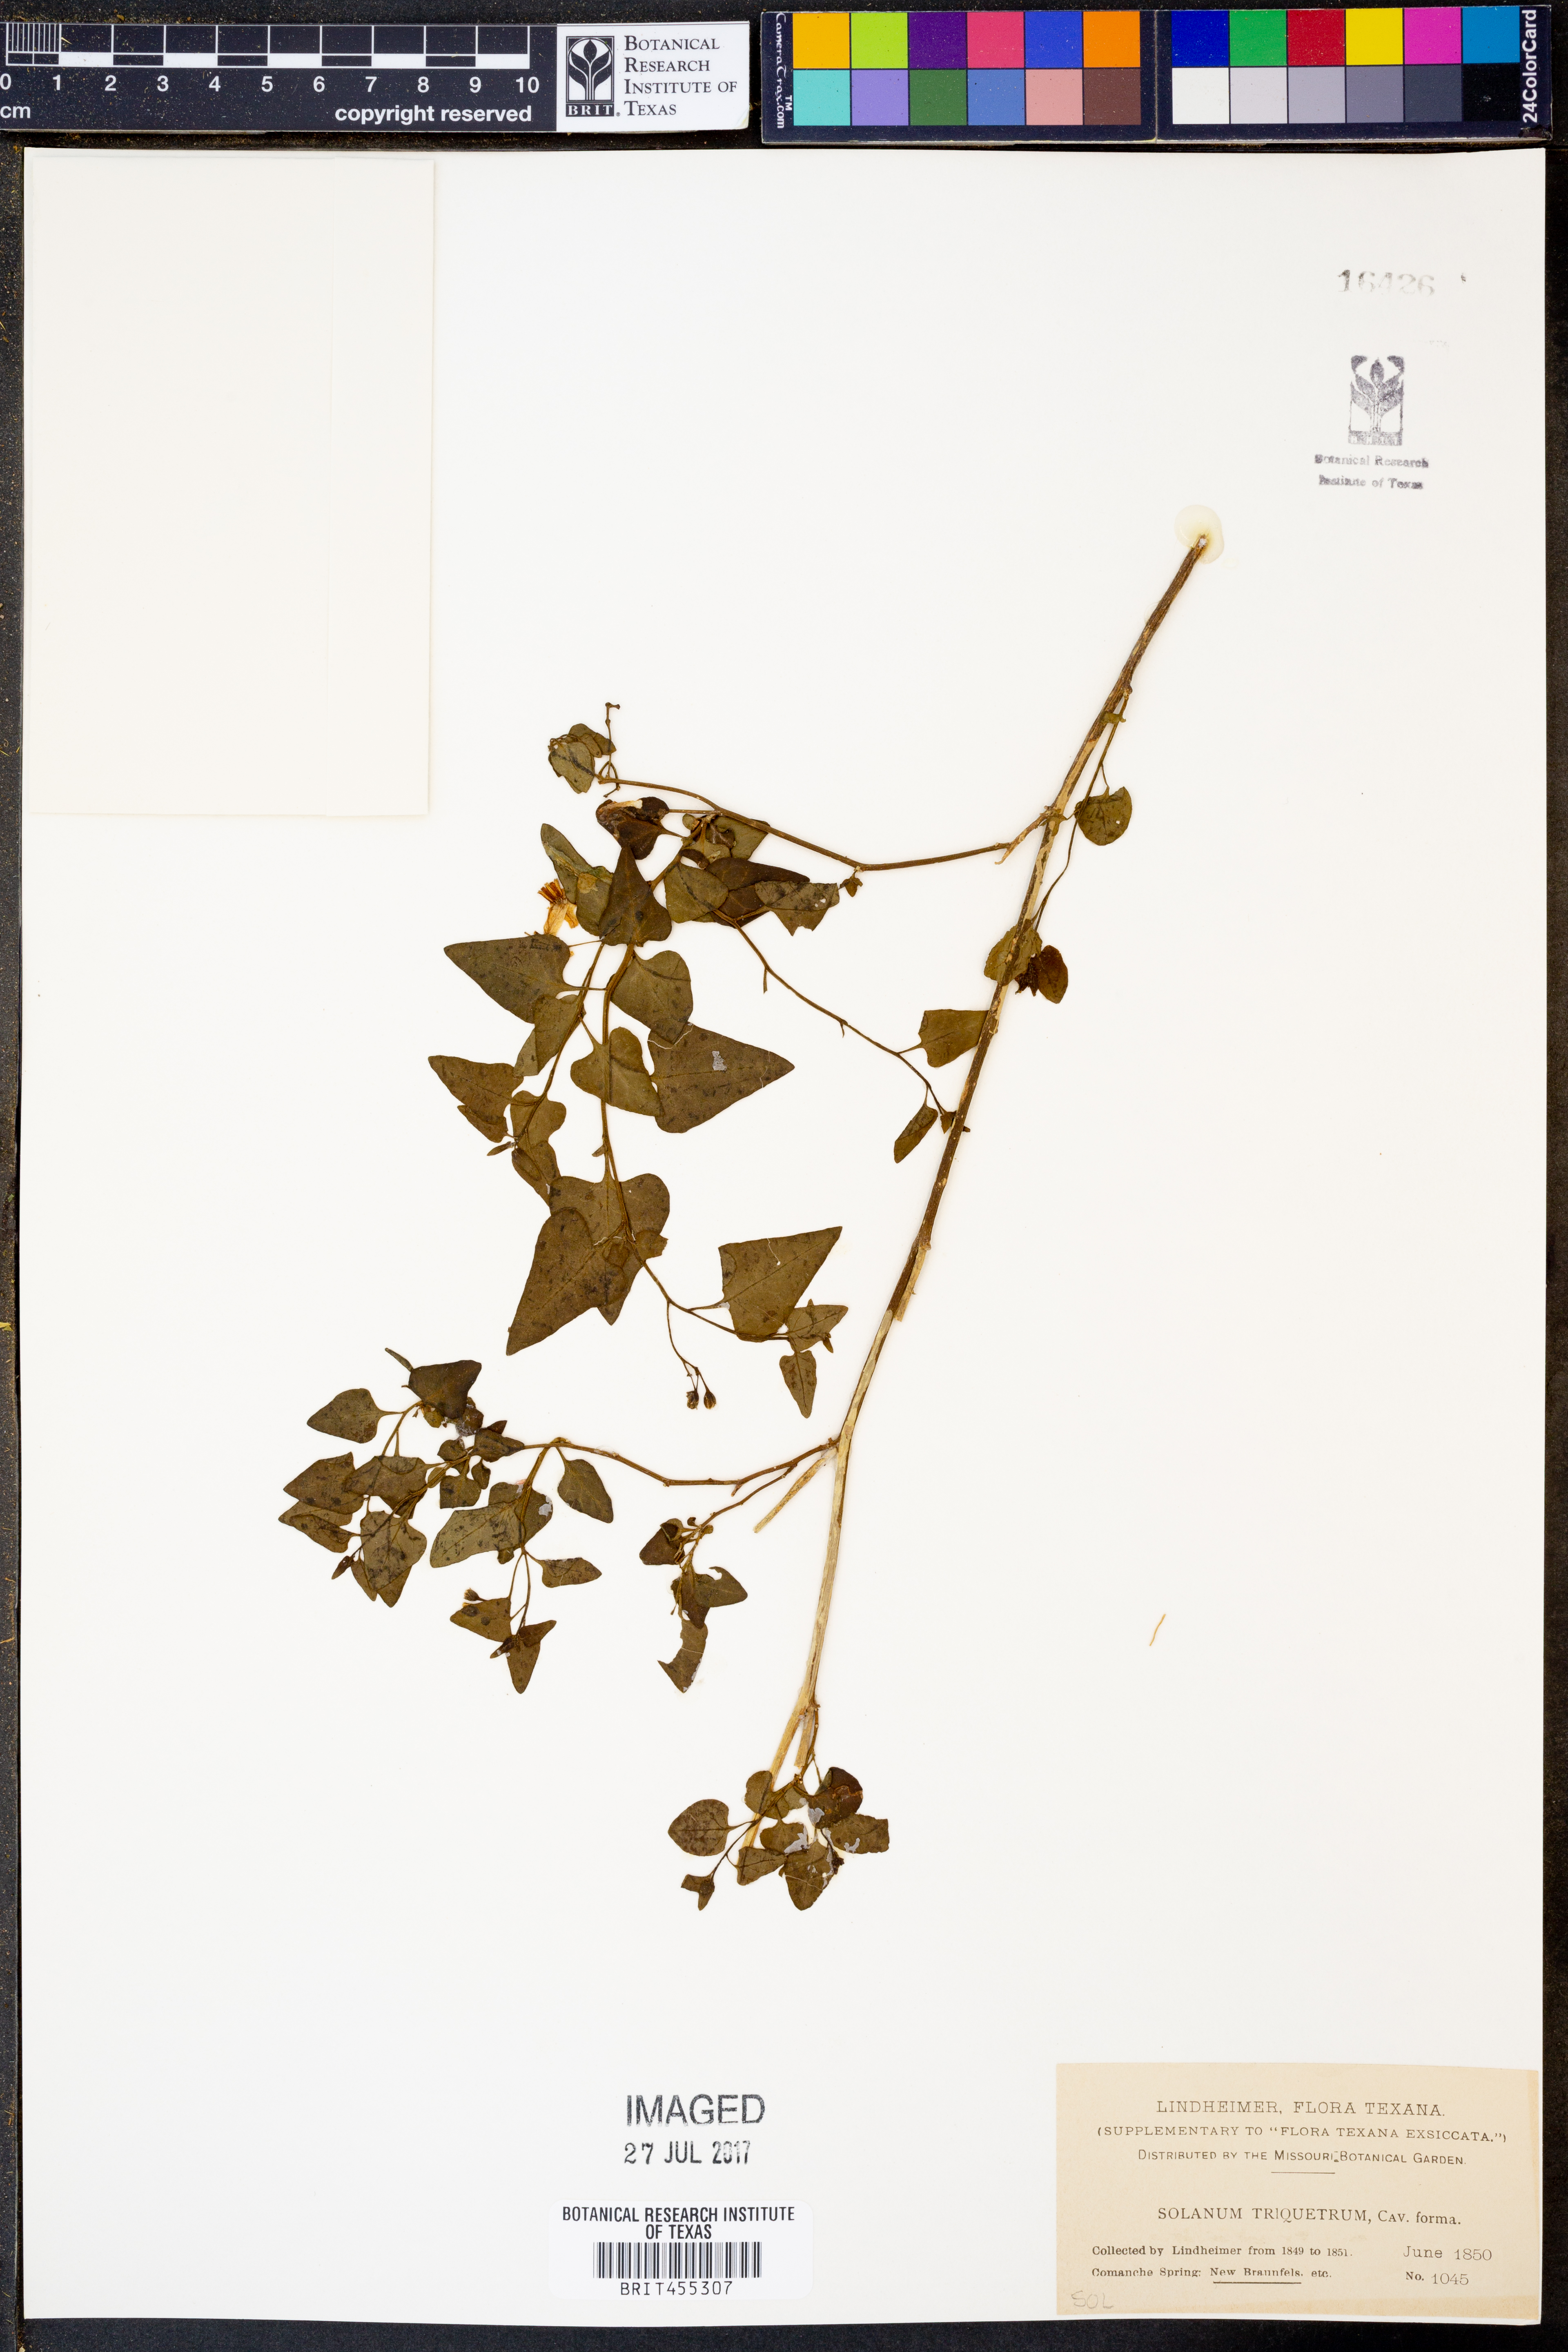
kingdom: Plantae
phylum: Tracheophyta
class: Magnoliopsida
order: Solanales
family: Solanaceae
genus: Solanum
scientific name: Solanum triquetrum
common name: Texas nightshade
